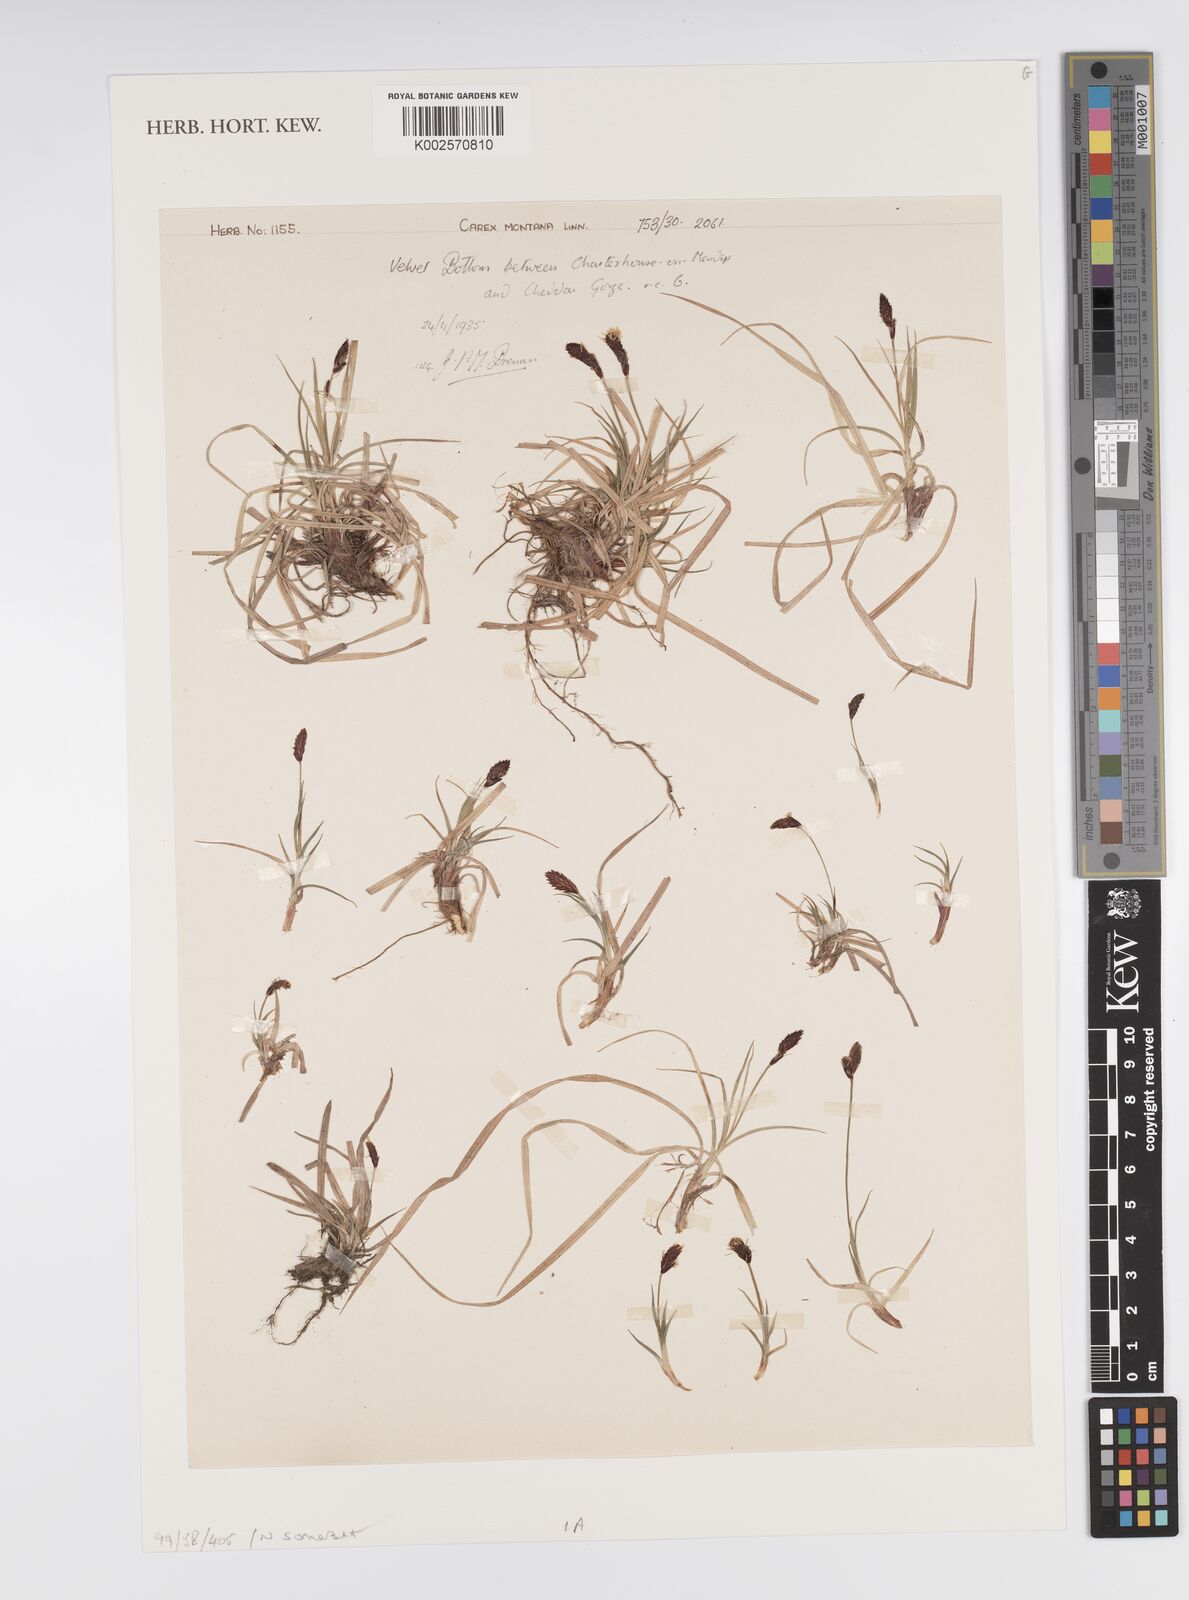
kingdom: Plantae
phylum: Tracheophyta
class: Liliopsida
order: Poales
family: Cyperaceae
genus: Carex
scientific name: Carex montana
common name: Soft-leaved sedge
